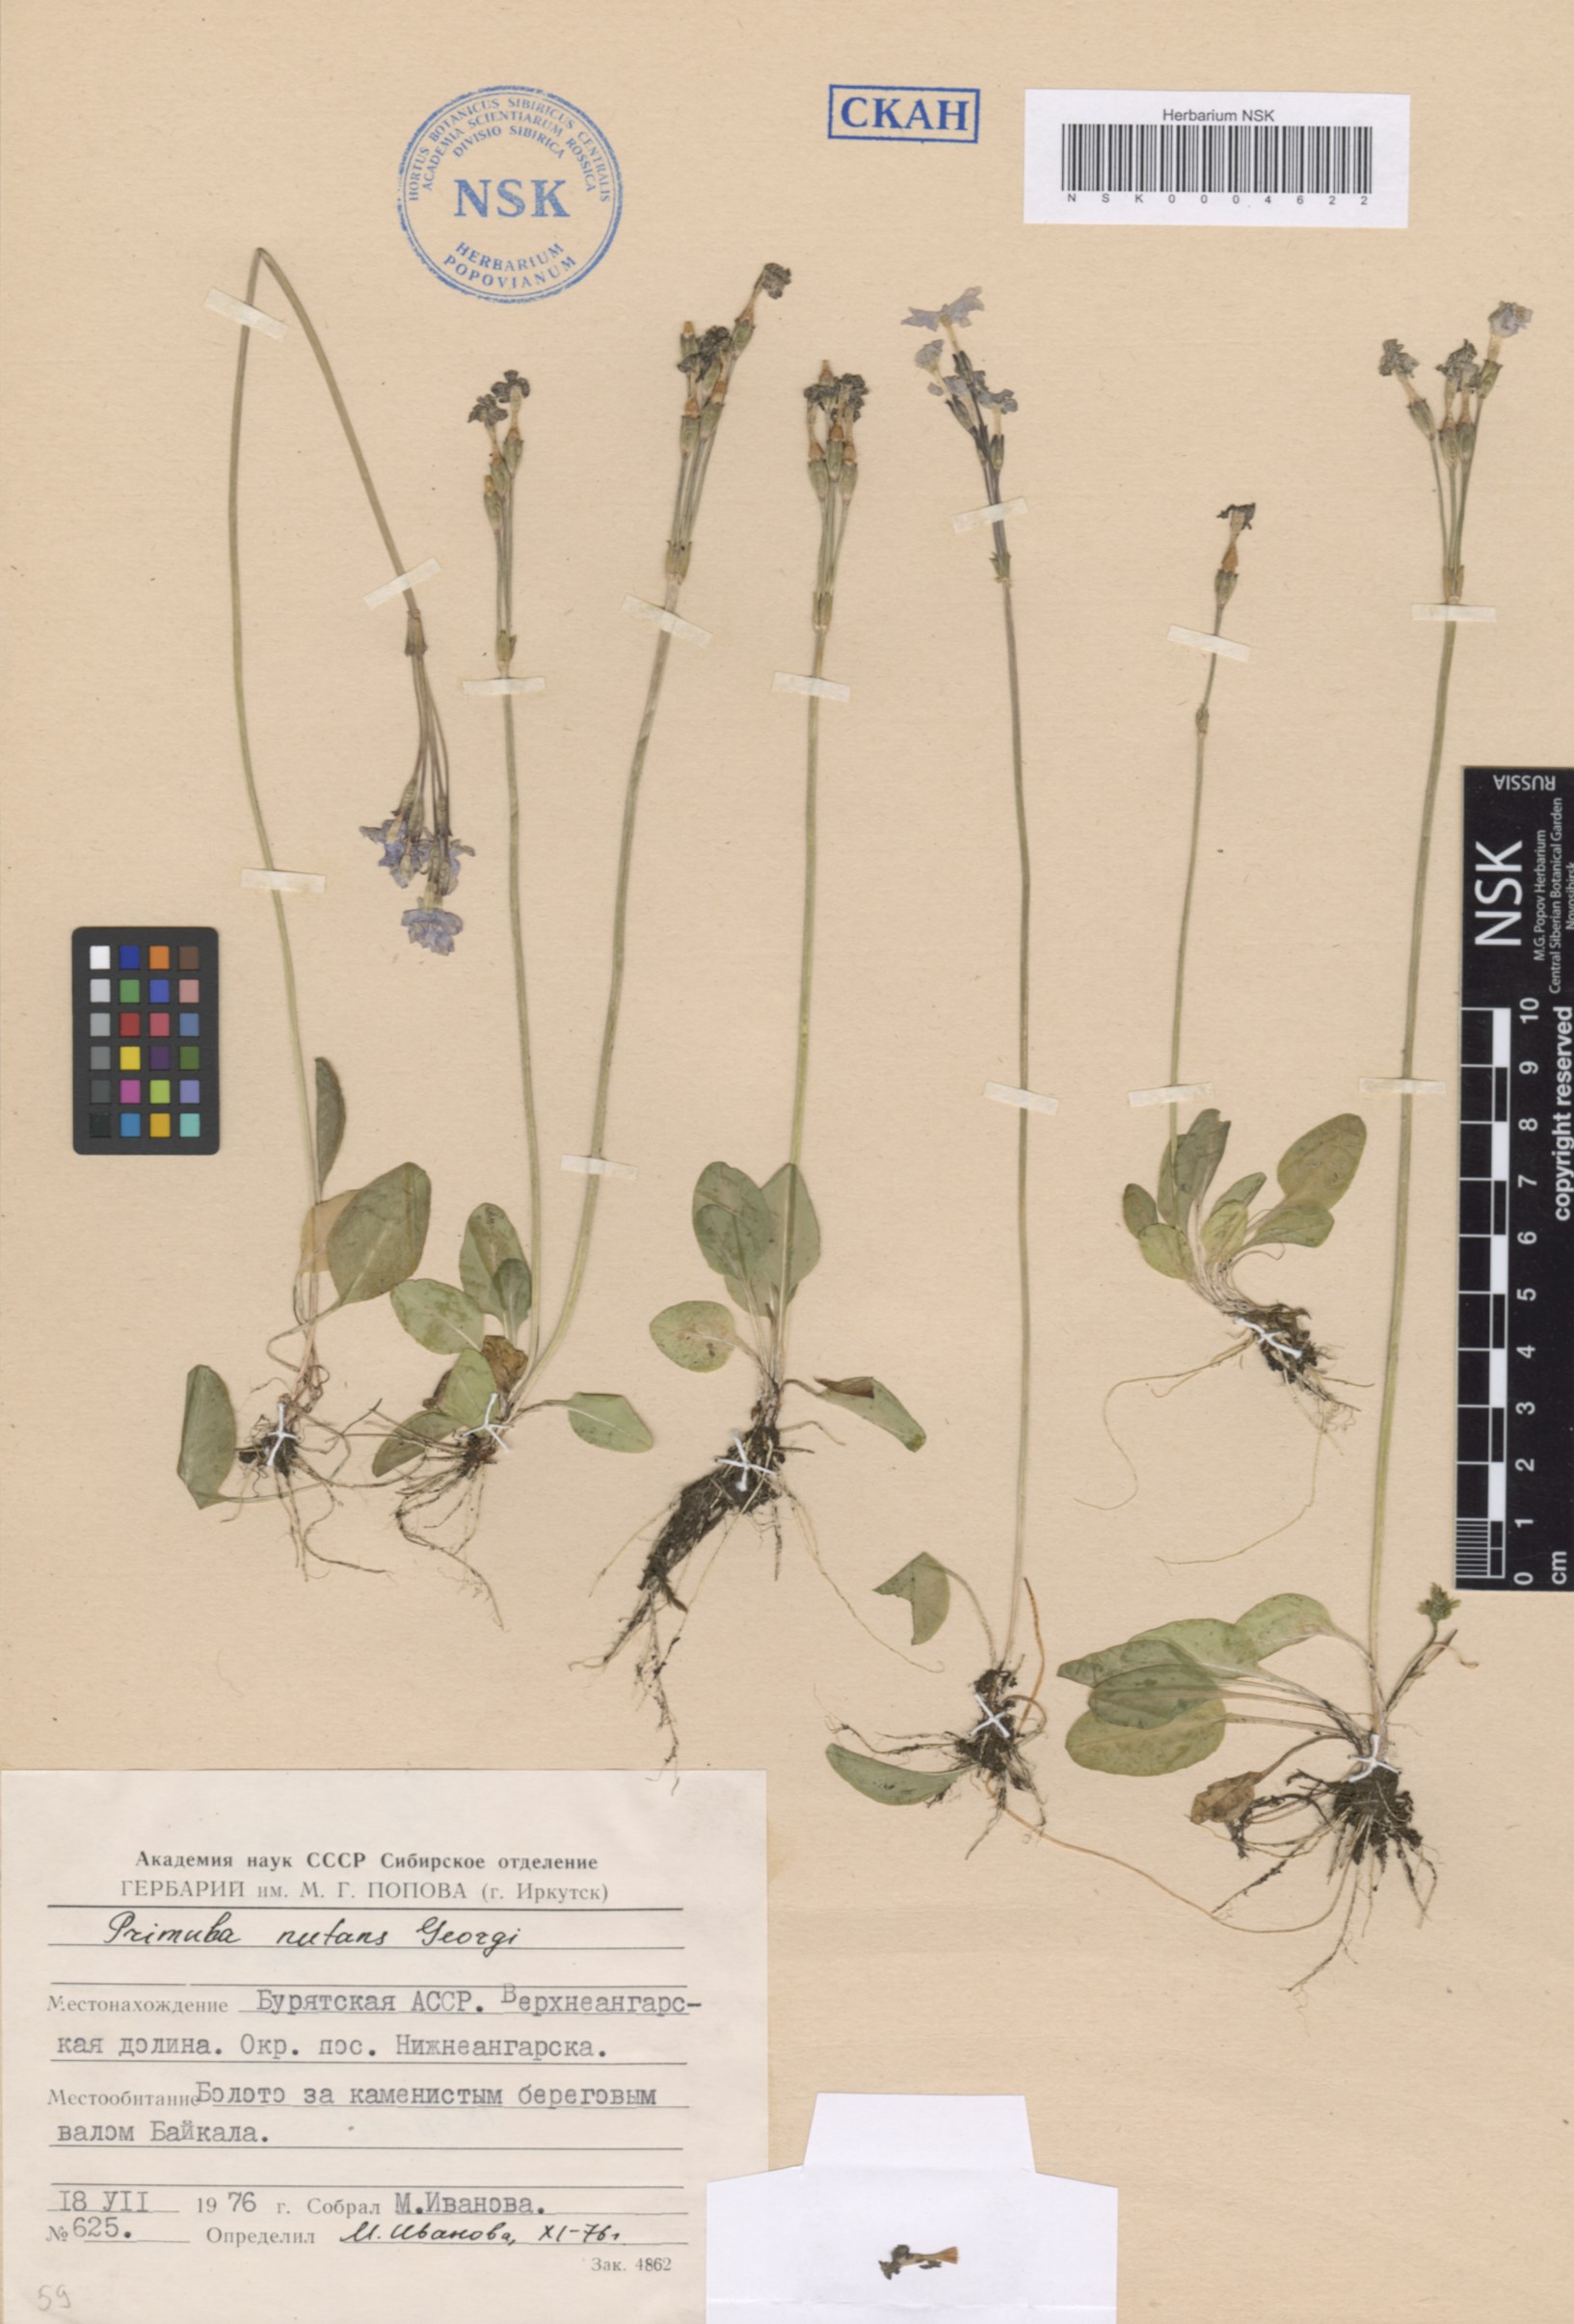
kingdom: Plantae
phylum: Tracheophyta
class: Magnoliopsida
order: Ericales
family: Primulaceae
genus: Primula
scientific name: Primula nutans
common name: Siberian primrose
